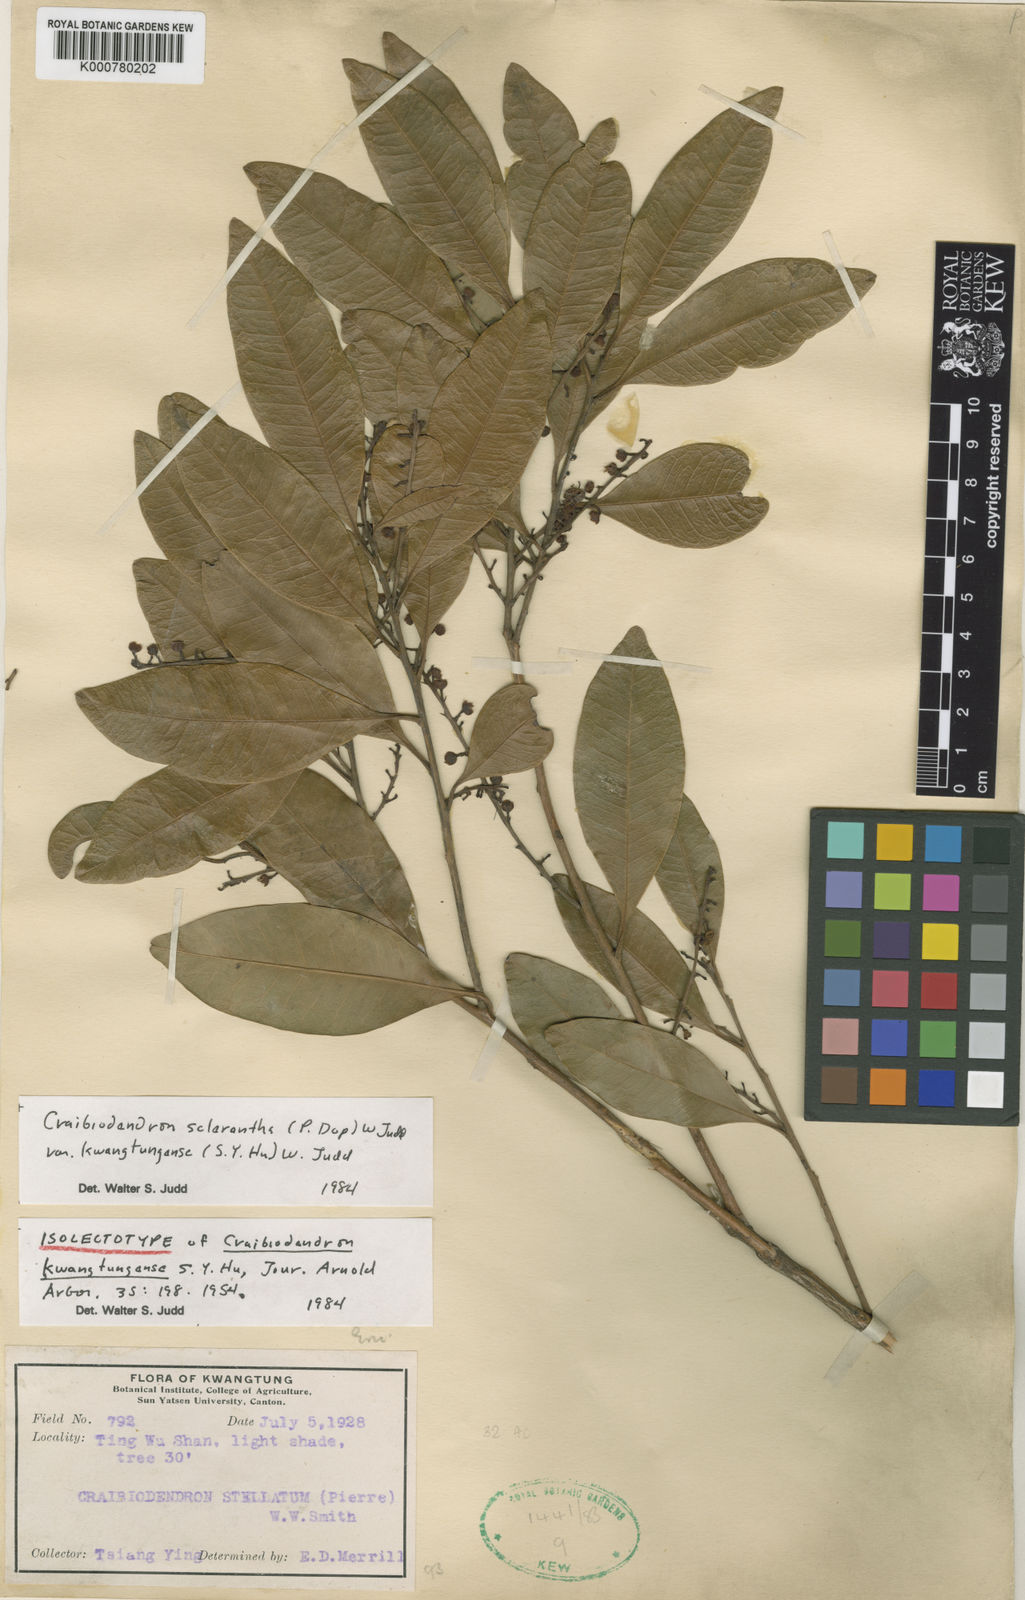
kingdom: Plantae
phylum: Tracheophyta
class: Magnoliopsida
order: Ericales
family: Ericaceae
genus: Craibiodendron
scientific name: Craibiodendron scleranthum
